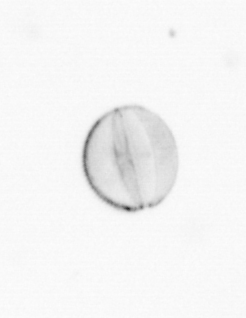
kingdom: Chromista
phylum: Ochrophyta
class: Bacillariophyceae
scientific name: Bacillariophyceae
